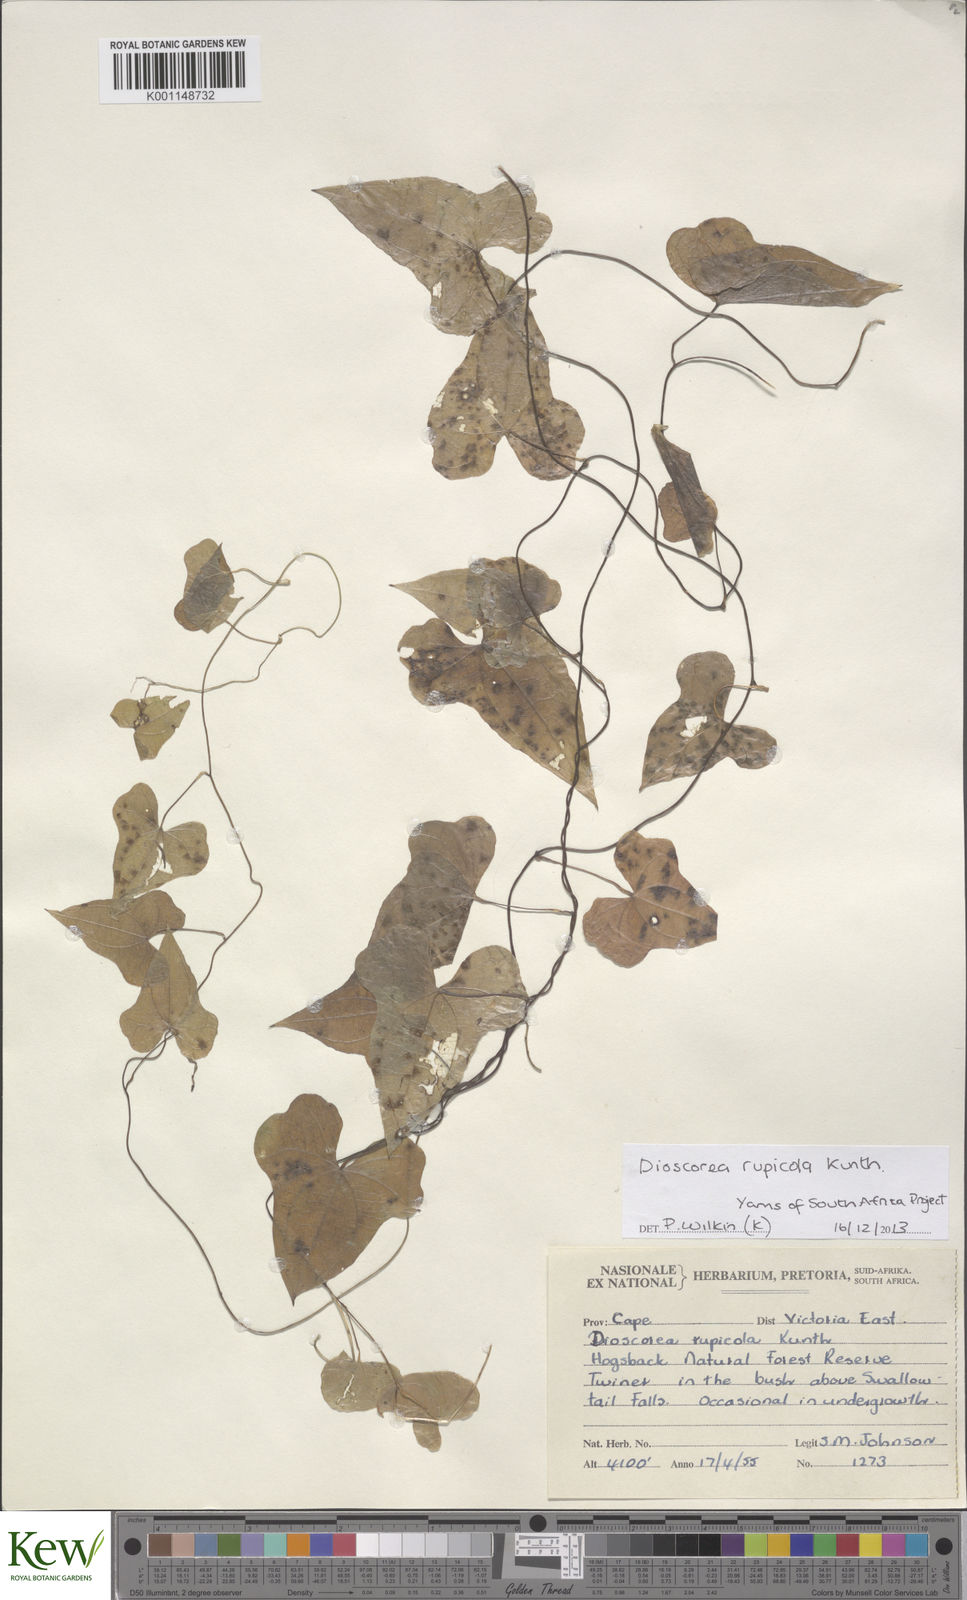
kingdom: Plantae
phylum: Tracheophyta
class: Liliopsida
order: Dioscoreales
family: Dioscoreaceae
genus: Dioscorea
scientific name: Dioscorea rupicola
